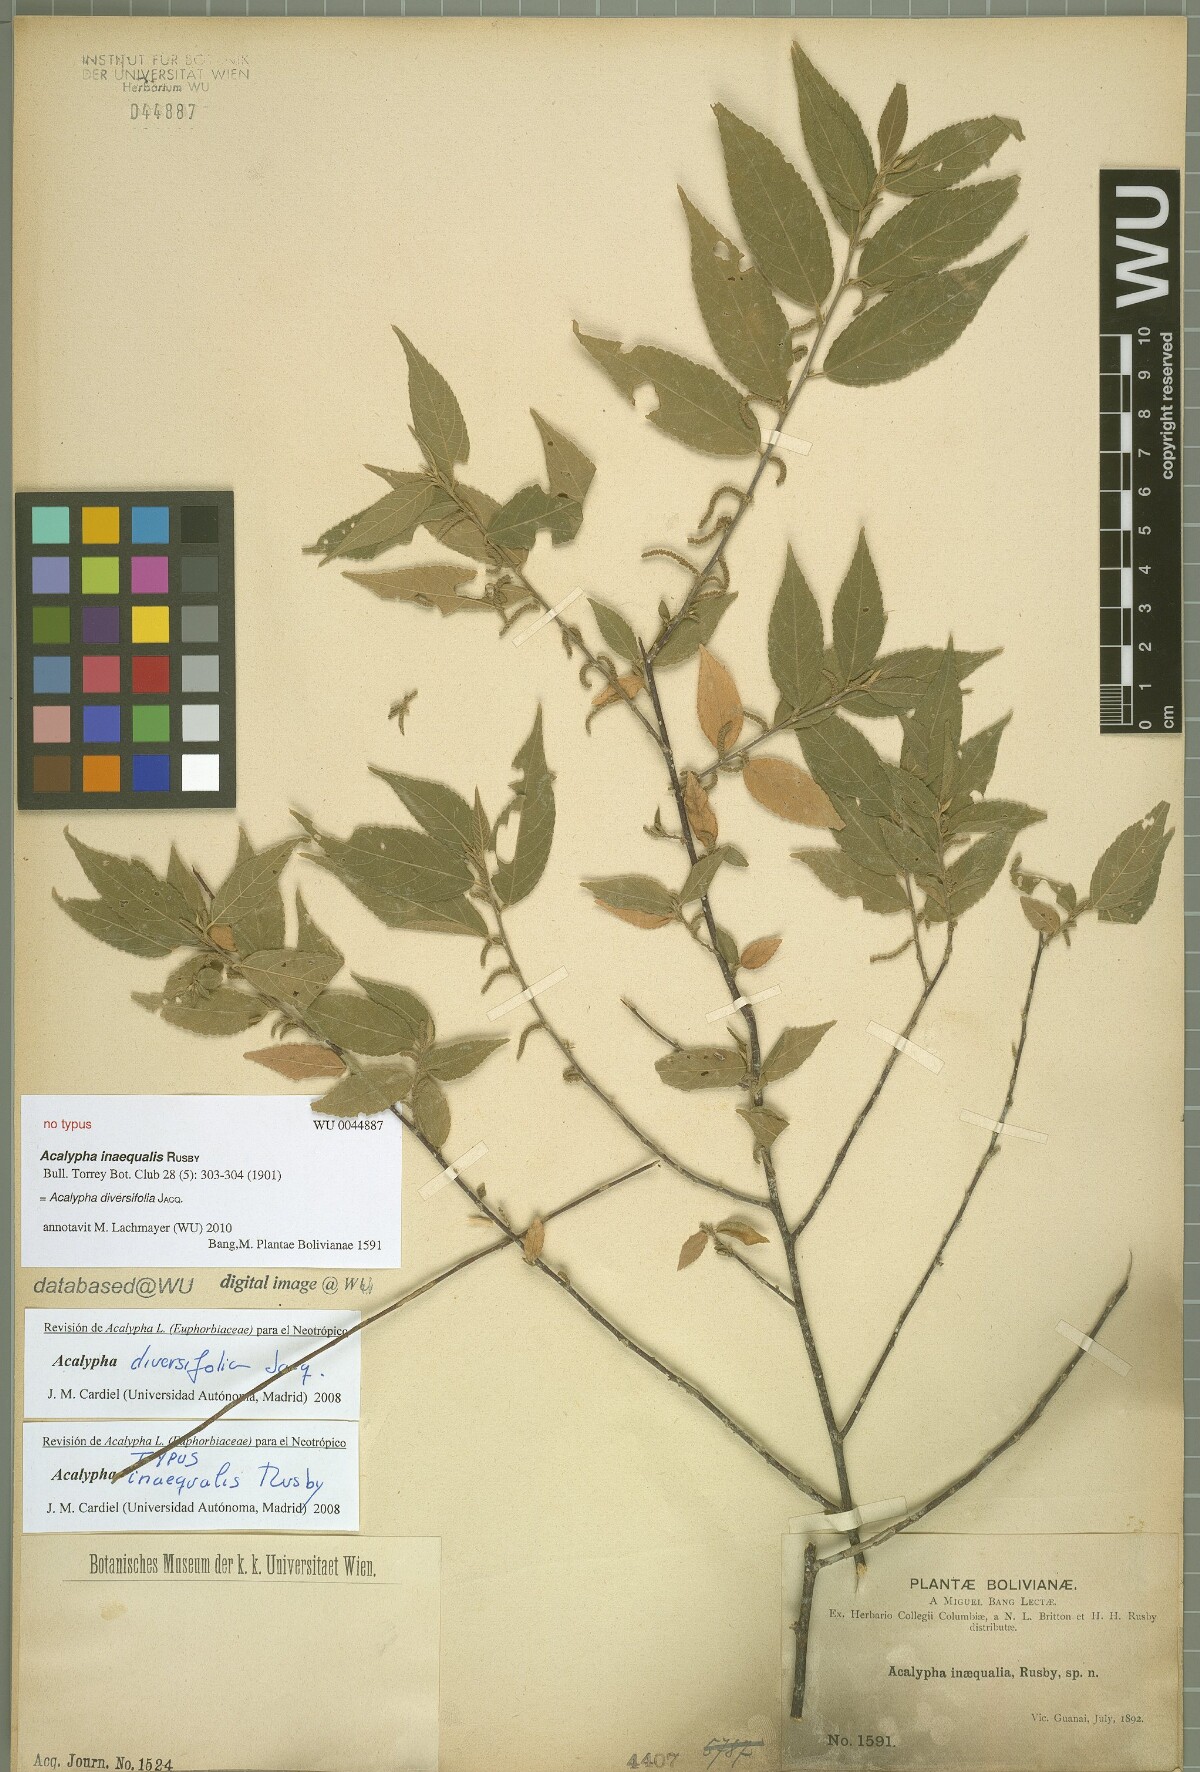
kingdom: Plantae
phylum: Tracheophyta
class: Magnoliopsida
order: Malpighiales
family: Euphorbiaceae
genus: Acalypha
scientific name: Acalypha diversifolia
